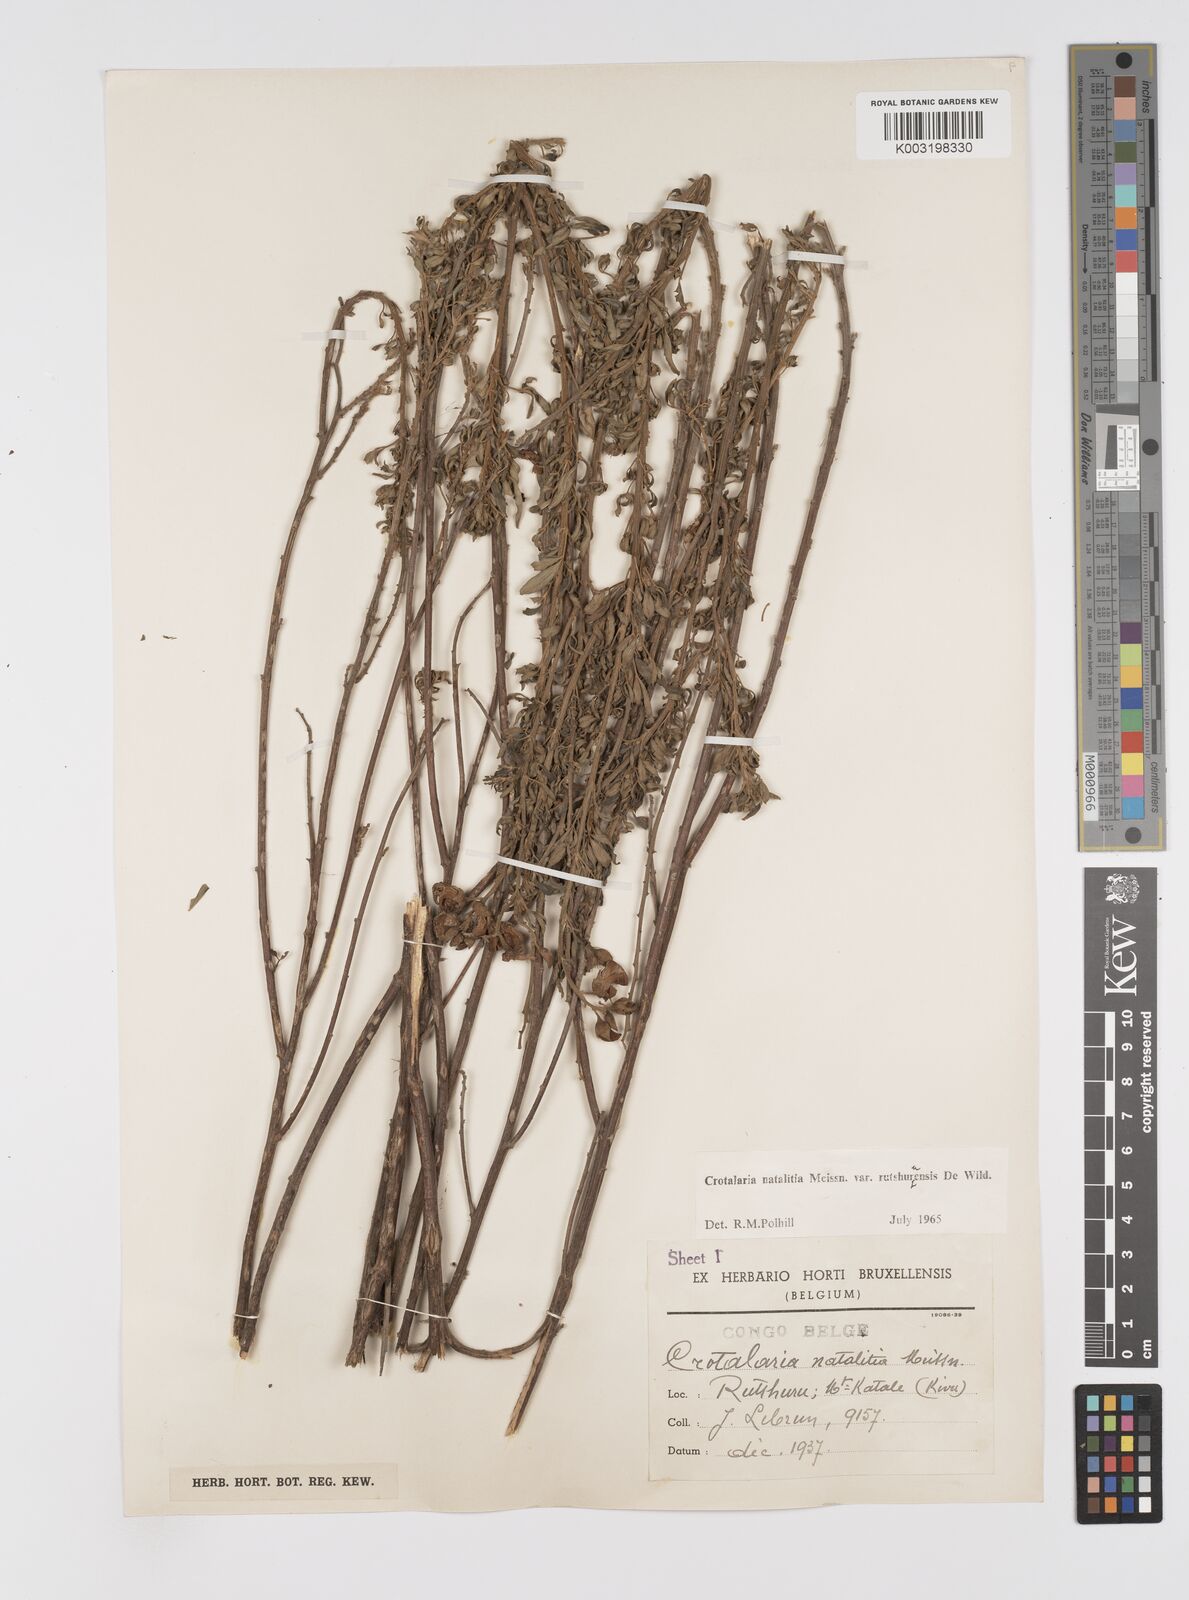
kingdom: Plantae
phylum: Tracheophyta
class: Magnoliopsida
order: Fabales
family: Fabaceae
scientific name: Fabaceae
